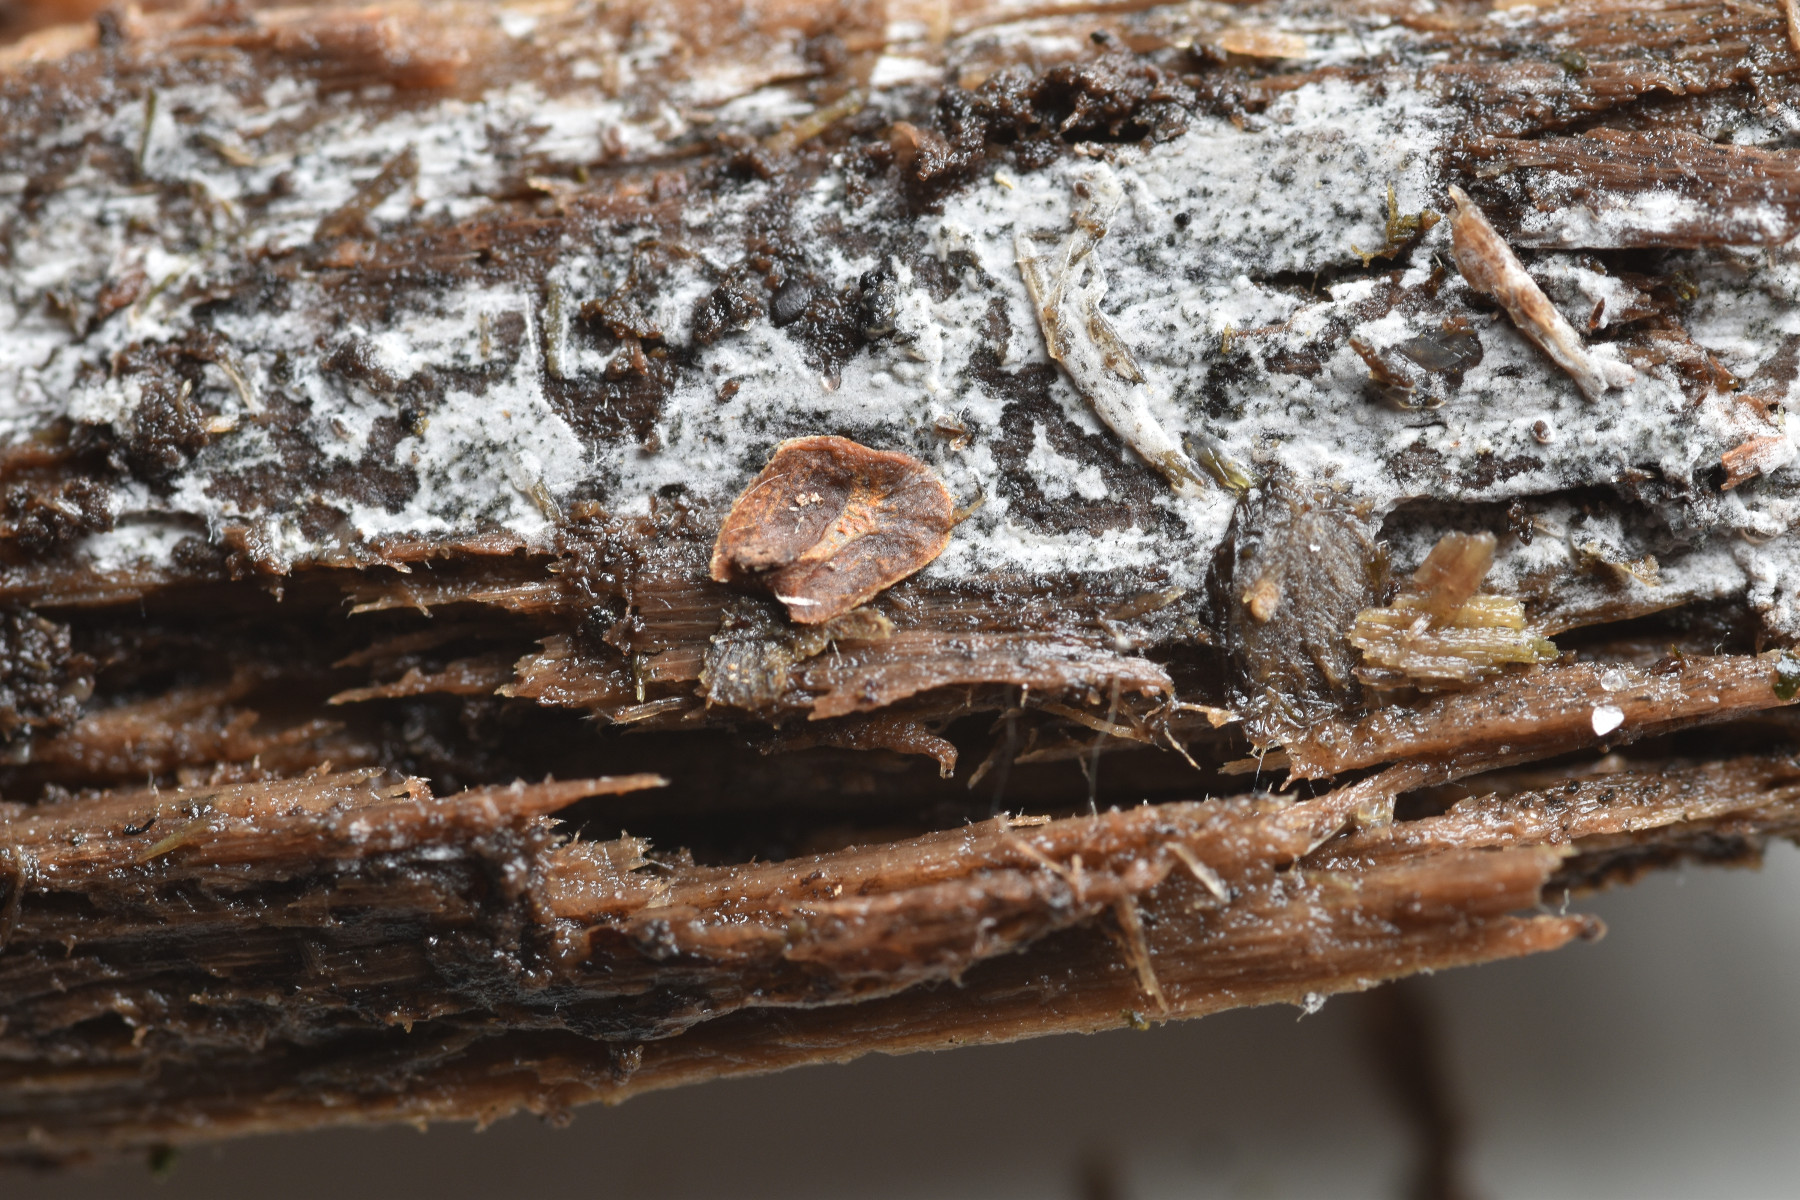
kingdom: Fungi
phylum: Basidiomycota
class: Agaricomycetes
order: Atheliales
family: Atheliaceae
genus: Athelia
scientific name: Athelia epiphylla
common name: almindelig barkhinde
